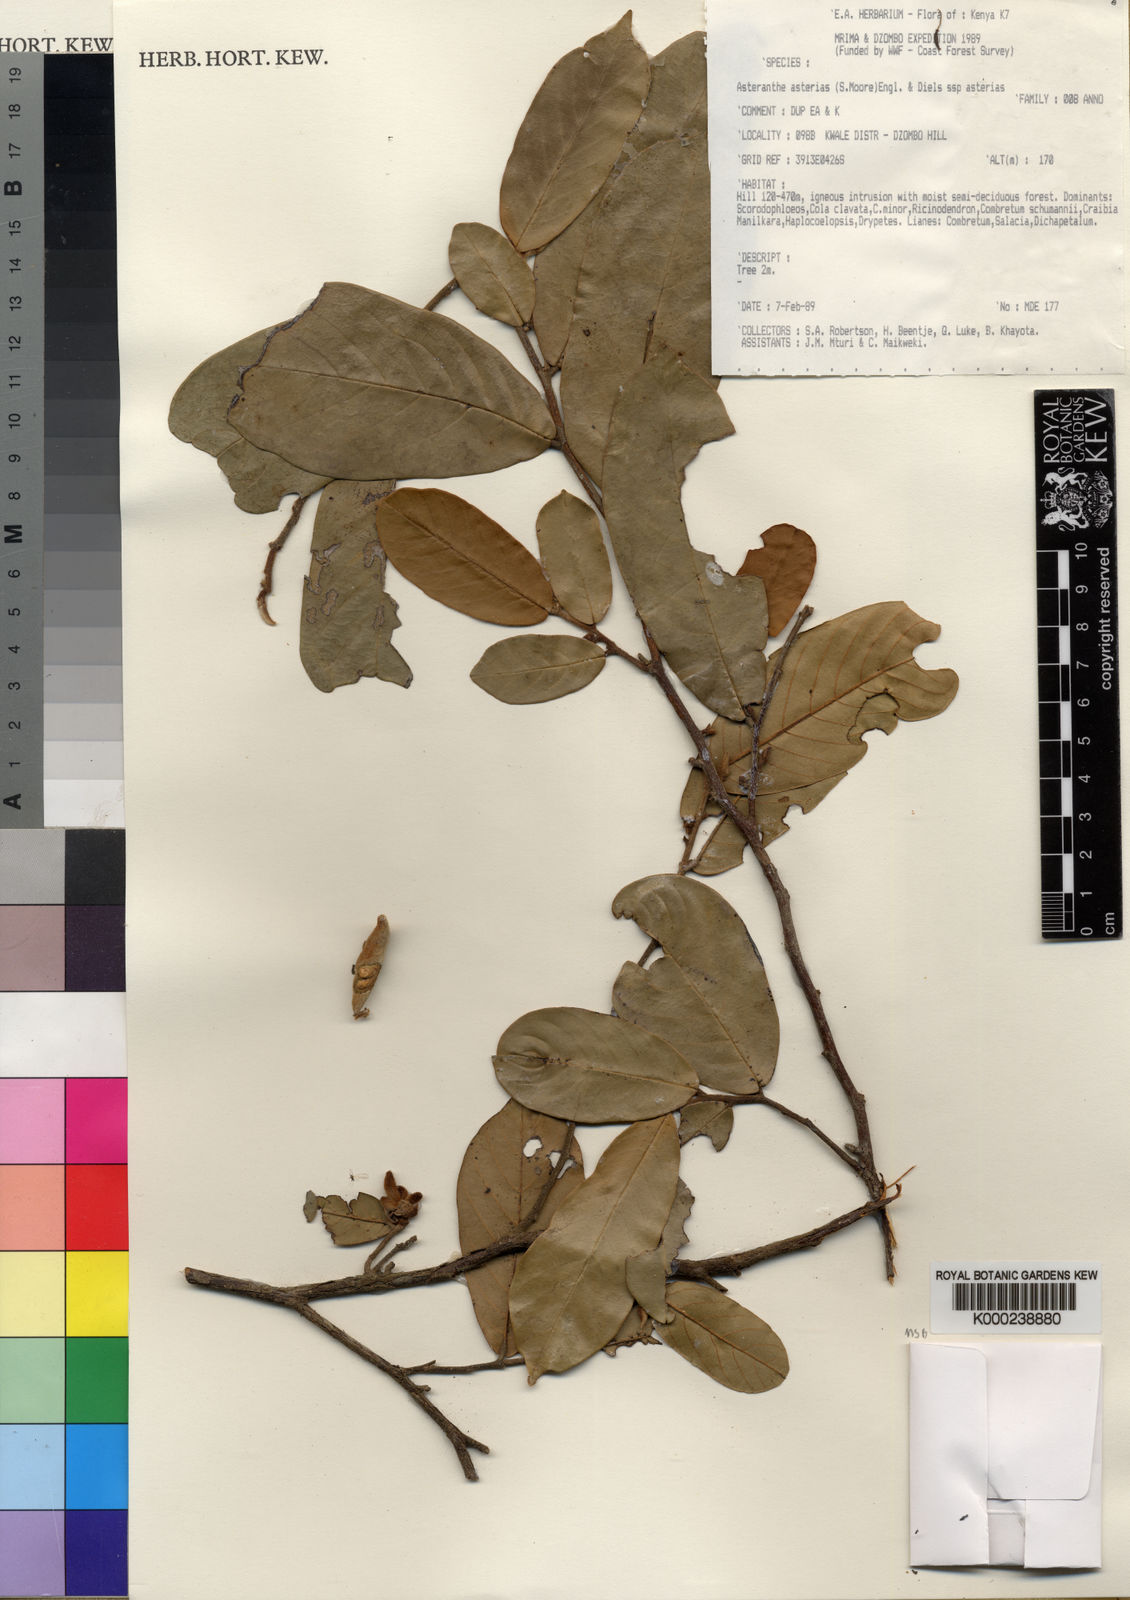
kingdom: Plantae
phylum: Tracheophyta
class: Magnoliopsida
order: Magnoliales
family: Annonaceae
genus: Asteranthe
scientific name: Asteranthe asterias
